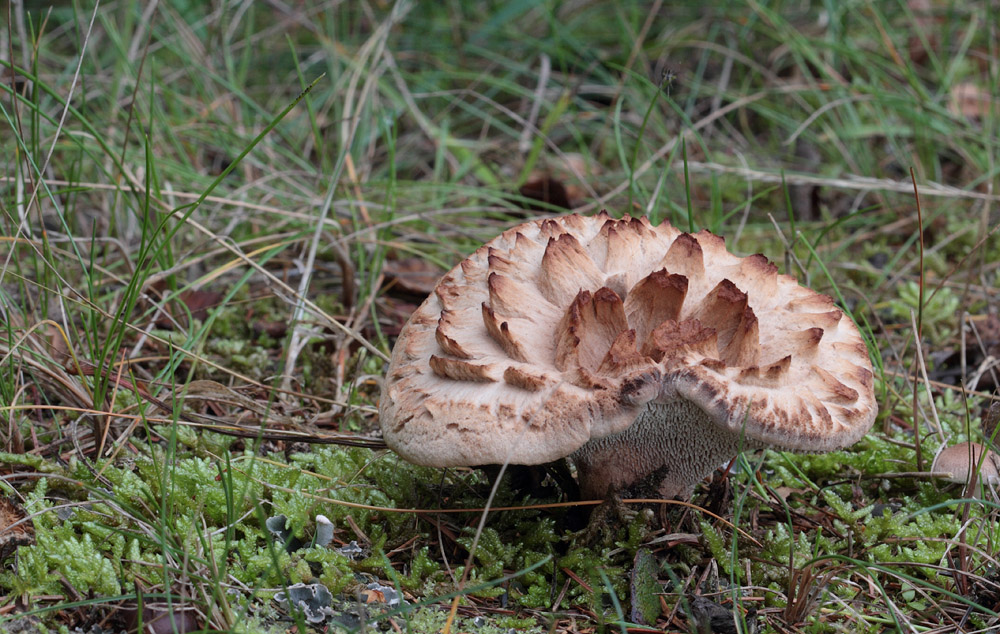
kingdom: Fungi
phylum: Basidiomycota
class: Agaricomycetes
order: Thelephorales
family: Bankeraceae
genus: Sarcodon
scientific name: Sarcodon imbricatus
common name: skællet kødpigsvamp
